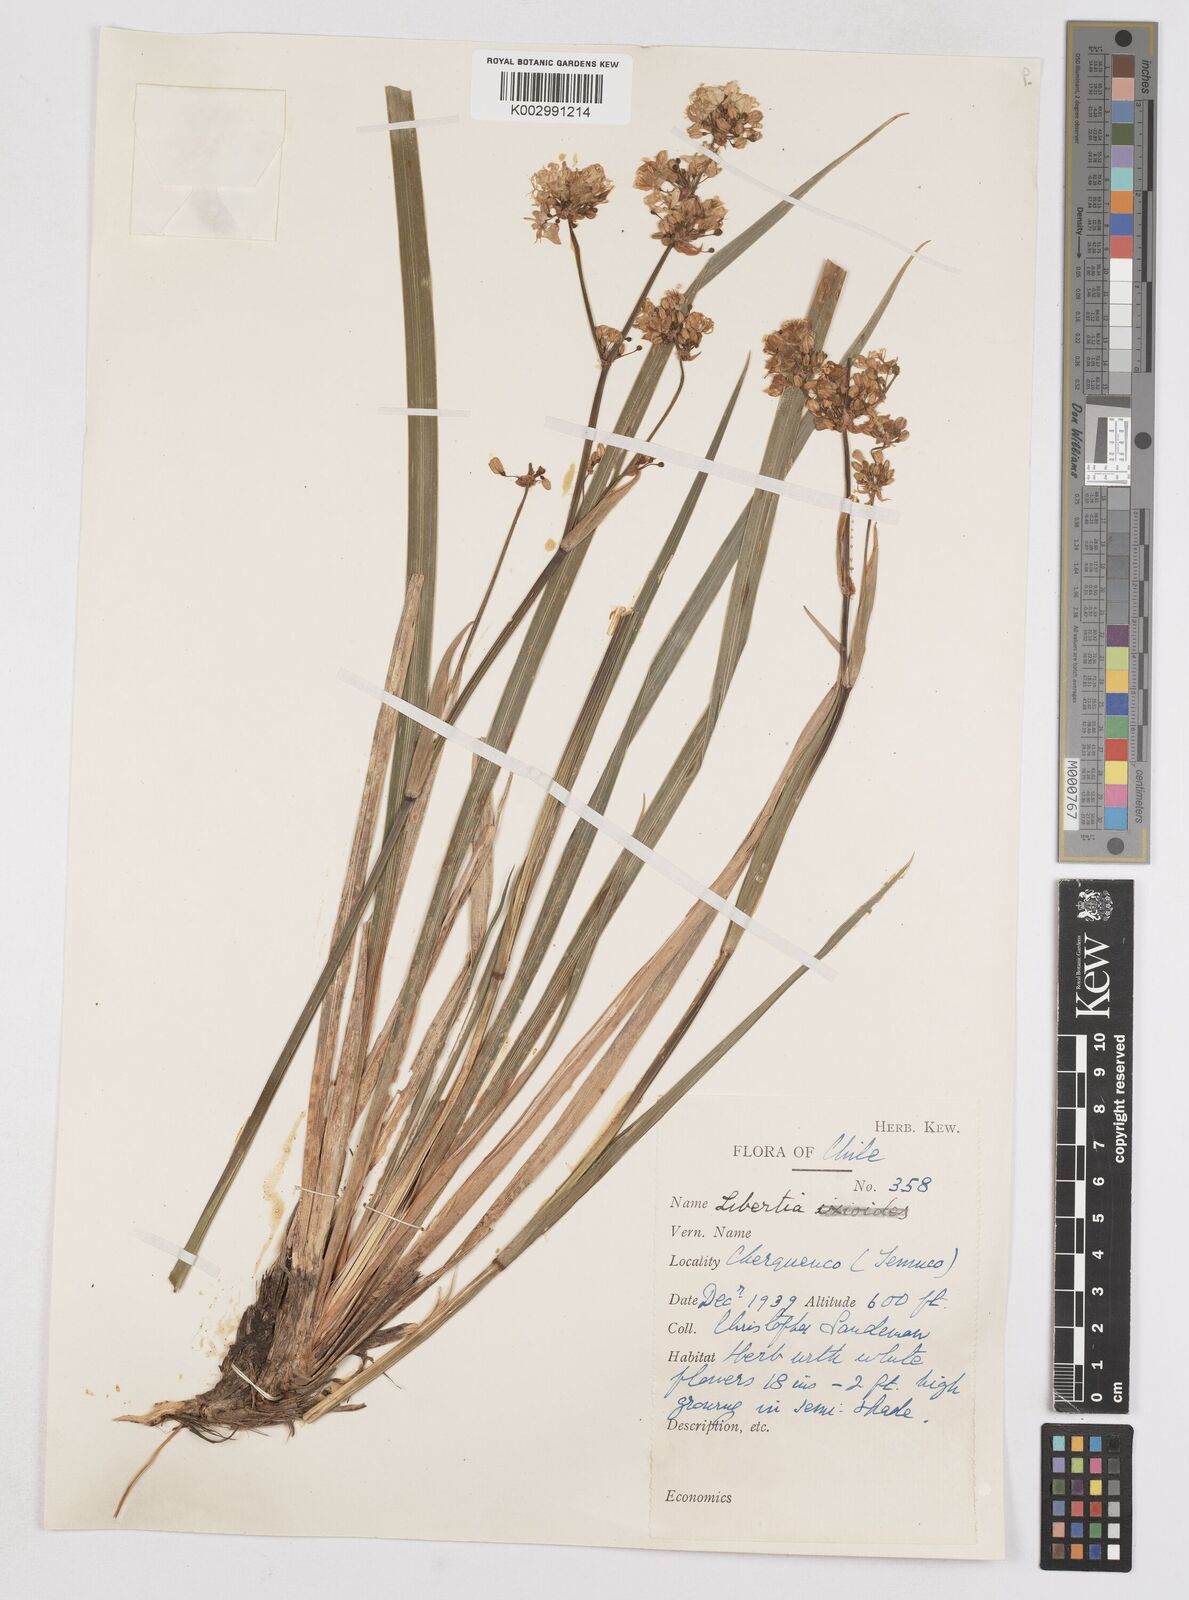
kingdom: Plantae
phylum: Tracheophyta
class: Liliopsida
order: Asparagales
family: Iridaceae
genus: Libertia
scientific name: Libertia chilensis
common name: Satin flower
